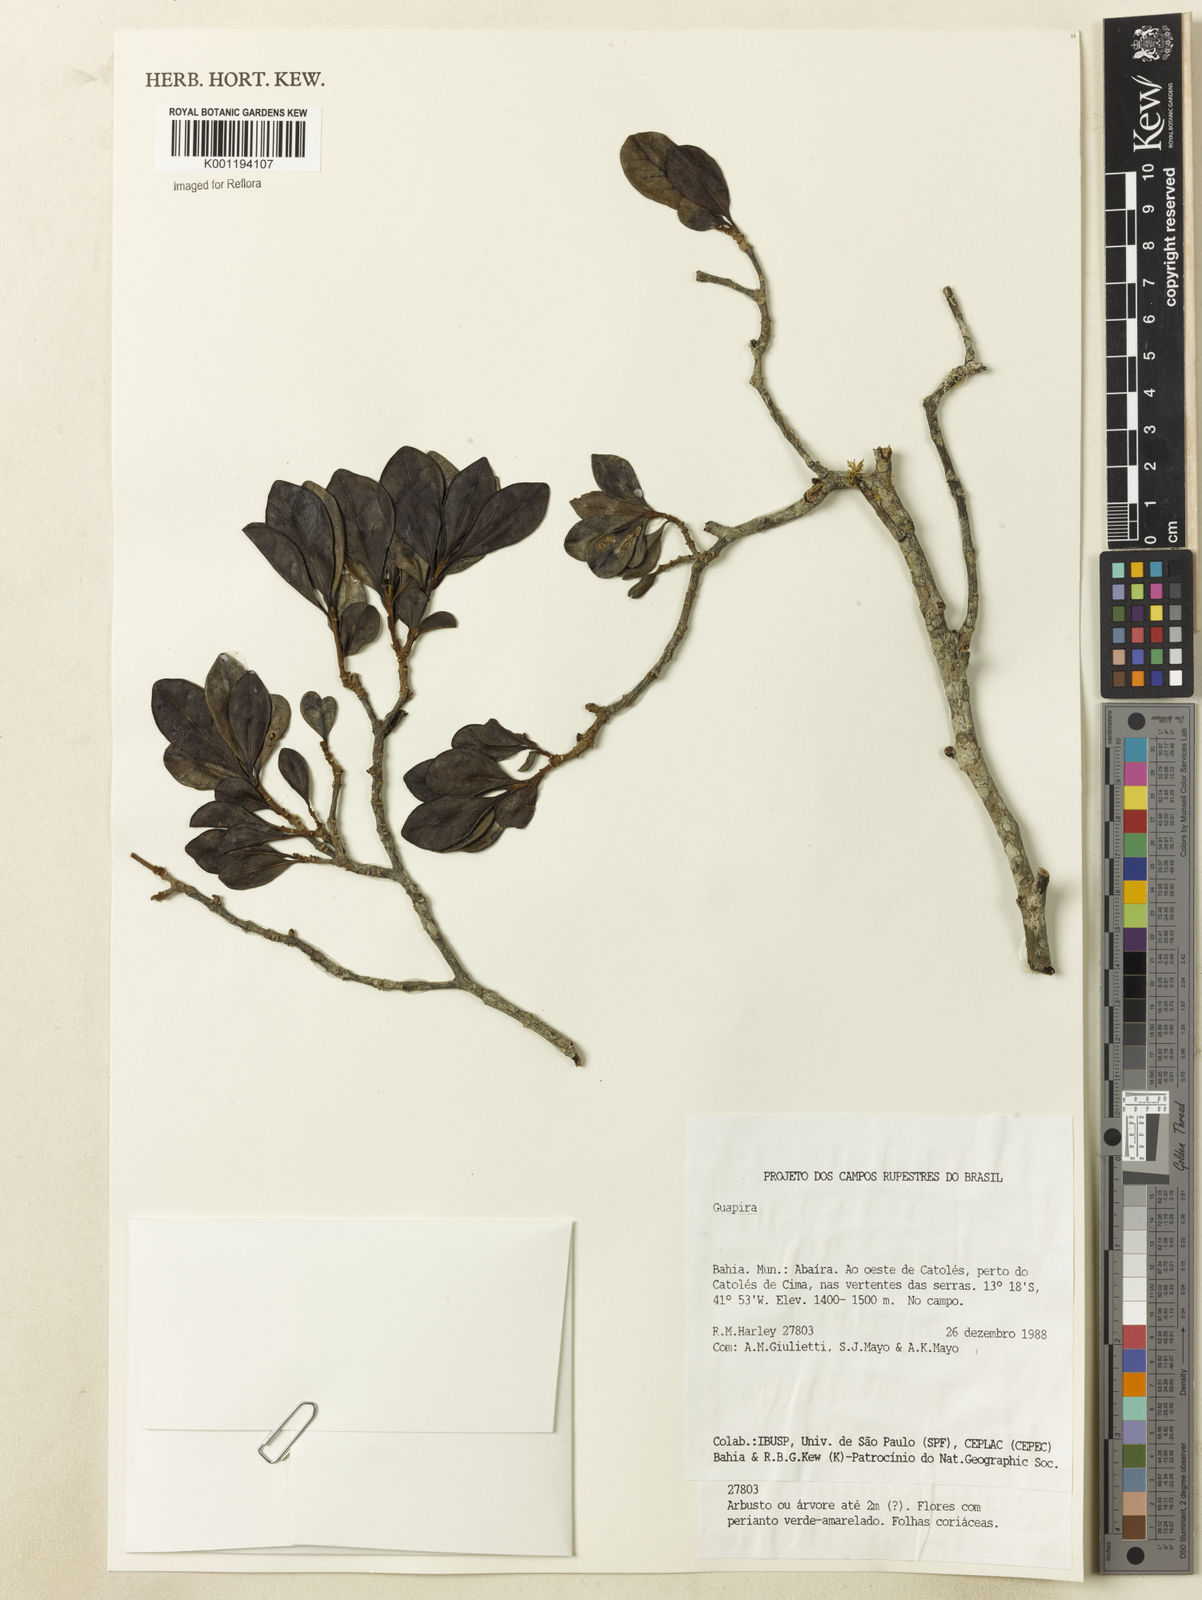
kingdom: Plantae
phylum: Tracheophyta
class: Magnoliopsida
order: Caryophyllales
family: Nyctaginaceae
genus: Guapira
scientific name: Guapira
